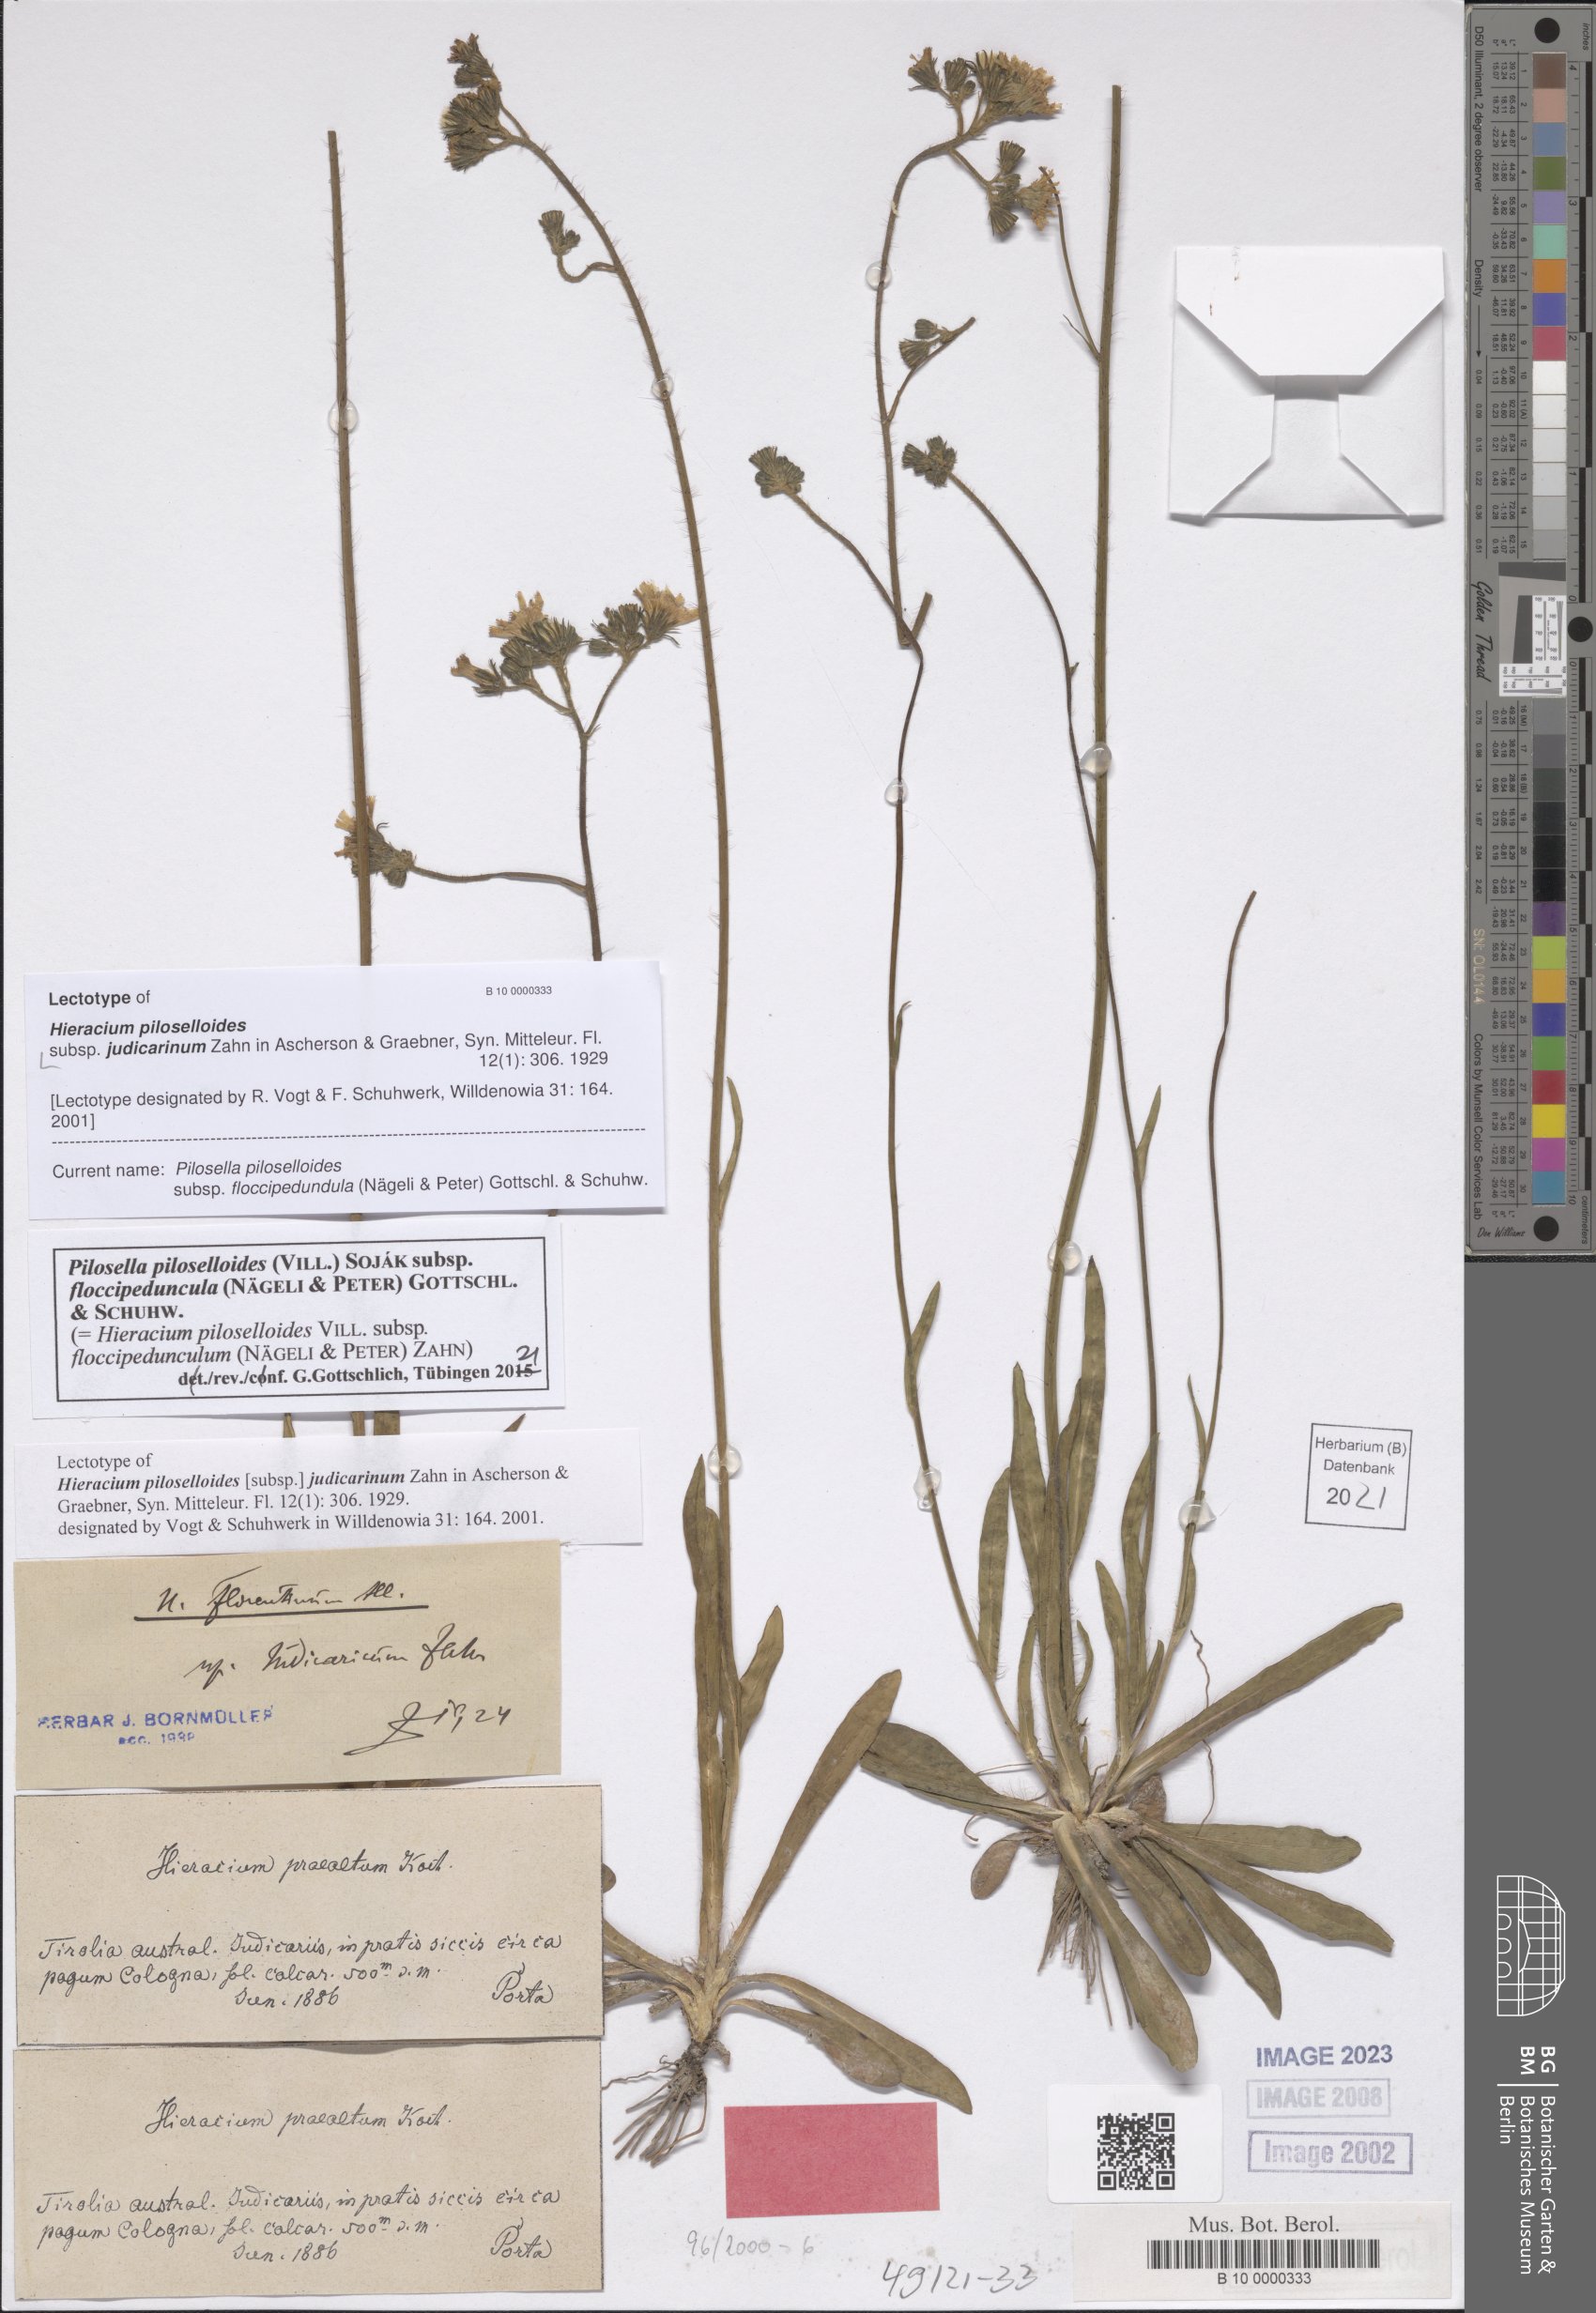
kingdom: Plantae
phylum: Tracheophyta
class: Magnoliopsida
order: Asterales
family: Asteraceae
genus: Hieracium
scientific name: Hieracium piloselloides
